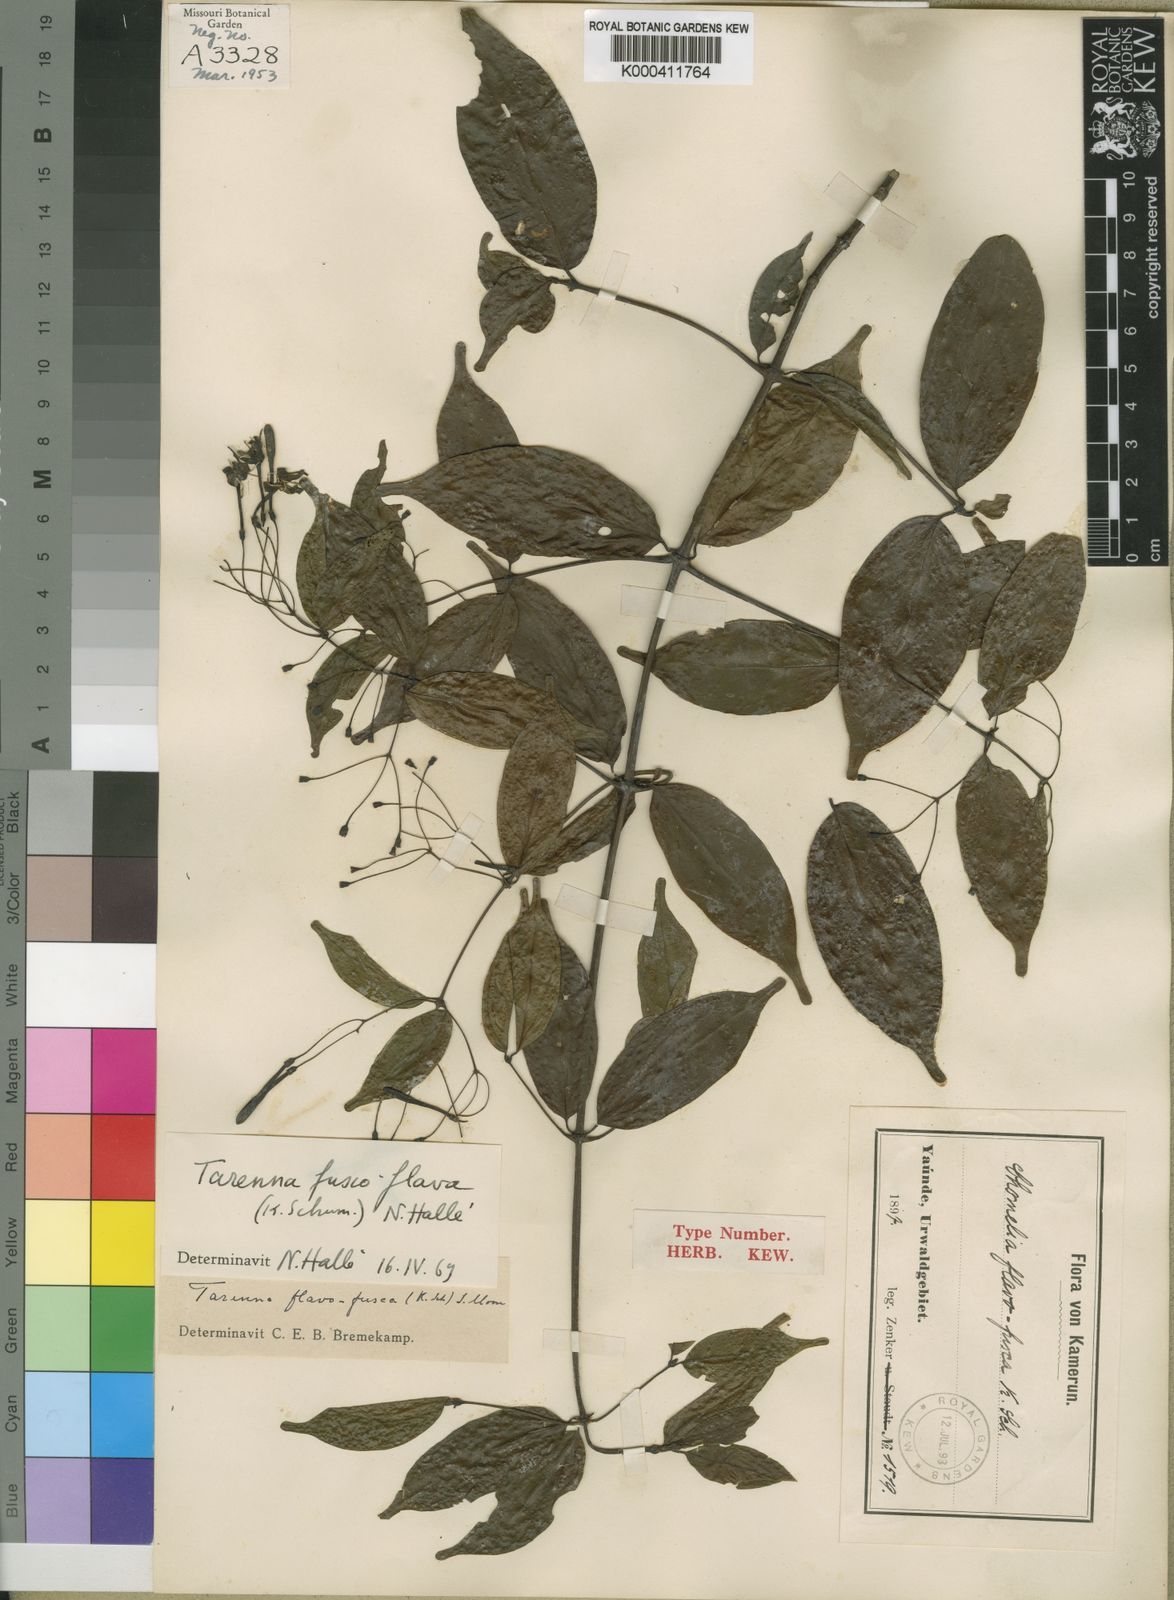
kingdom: Plantae
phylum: Tracheophyta
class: Magnoliopsida
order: Gentianales
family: Rubiaceae
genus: Tarenna
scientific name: Tarenna fuscoflava
